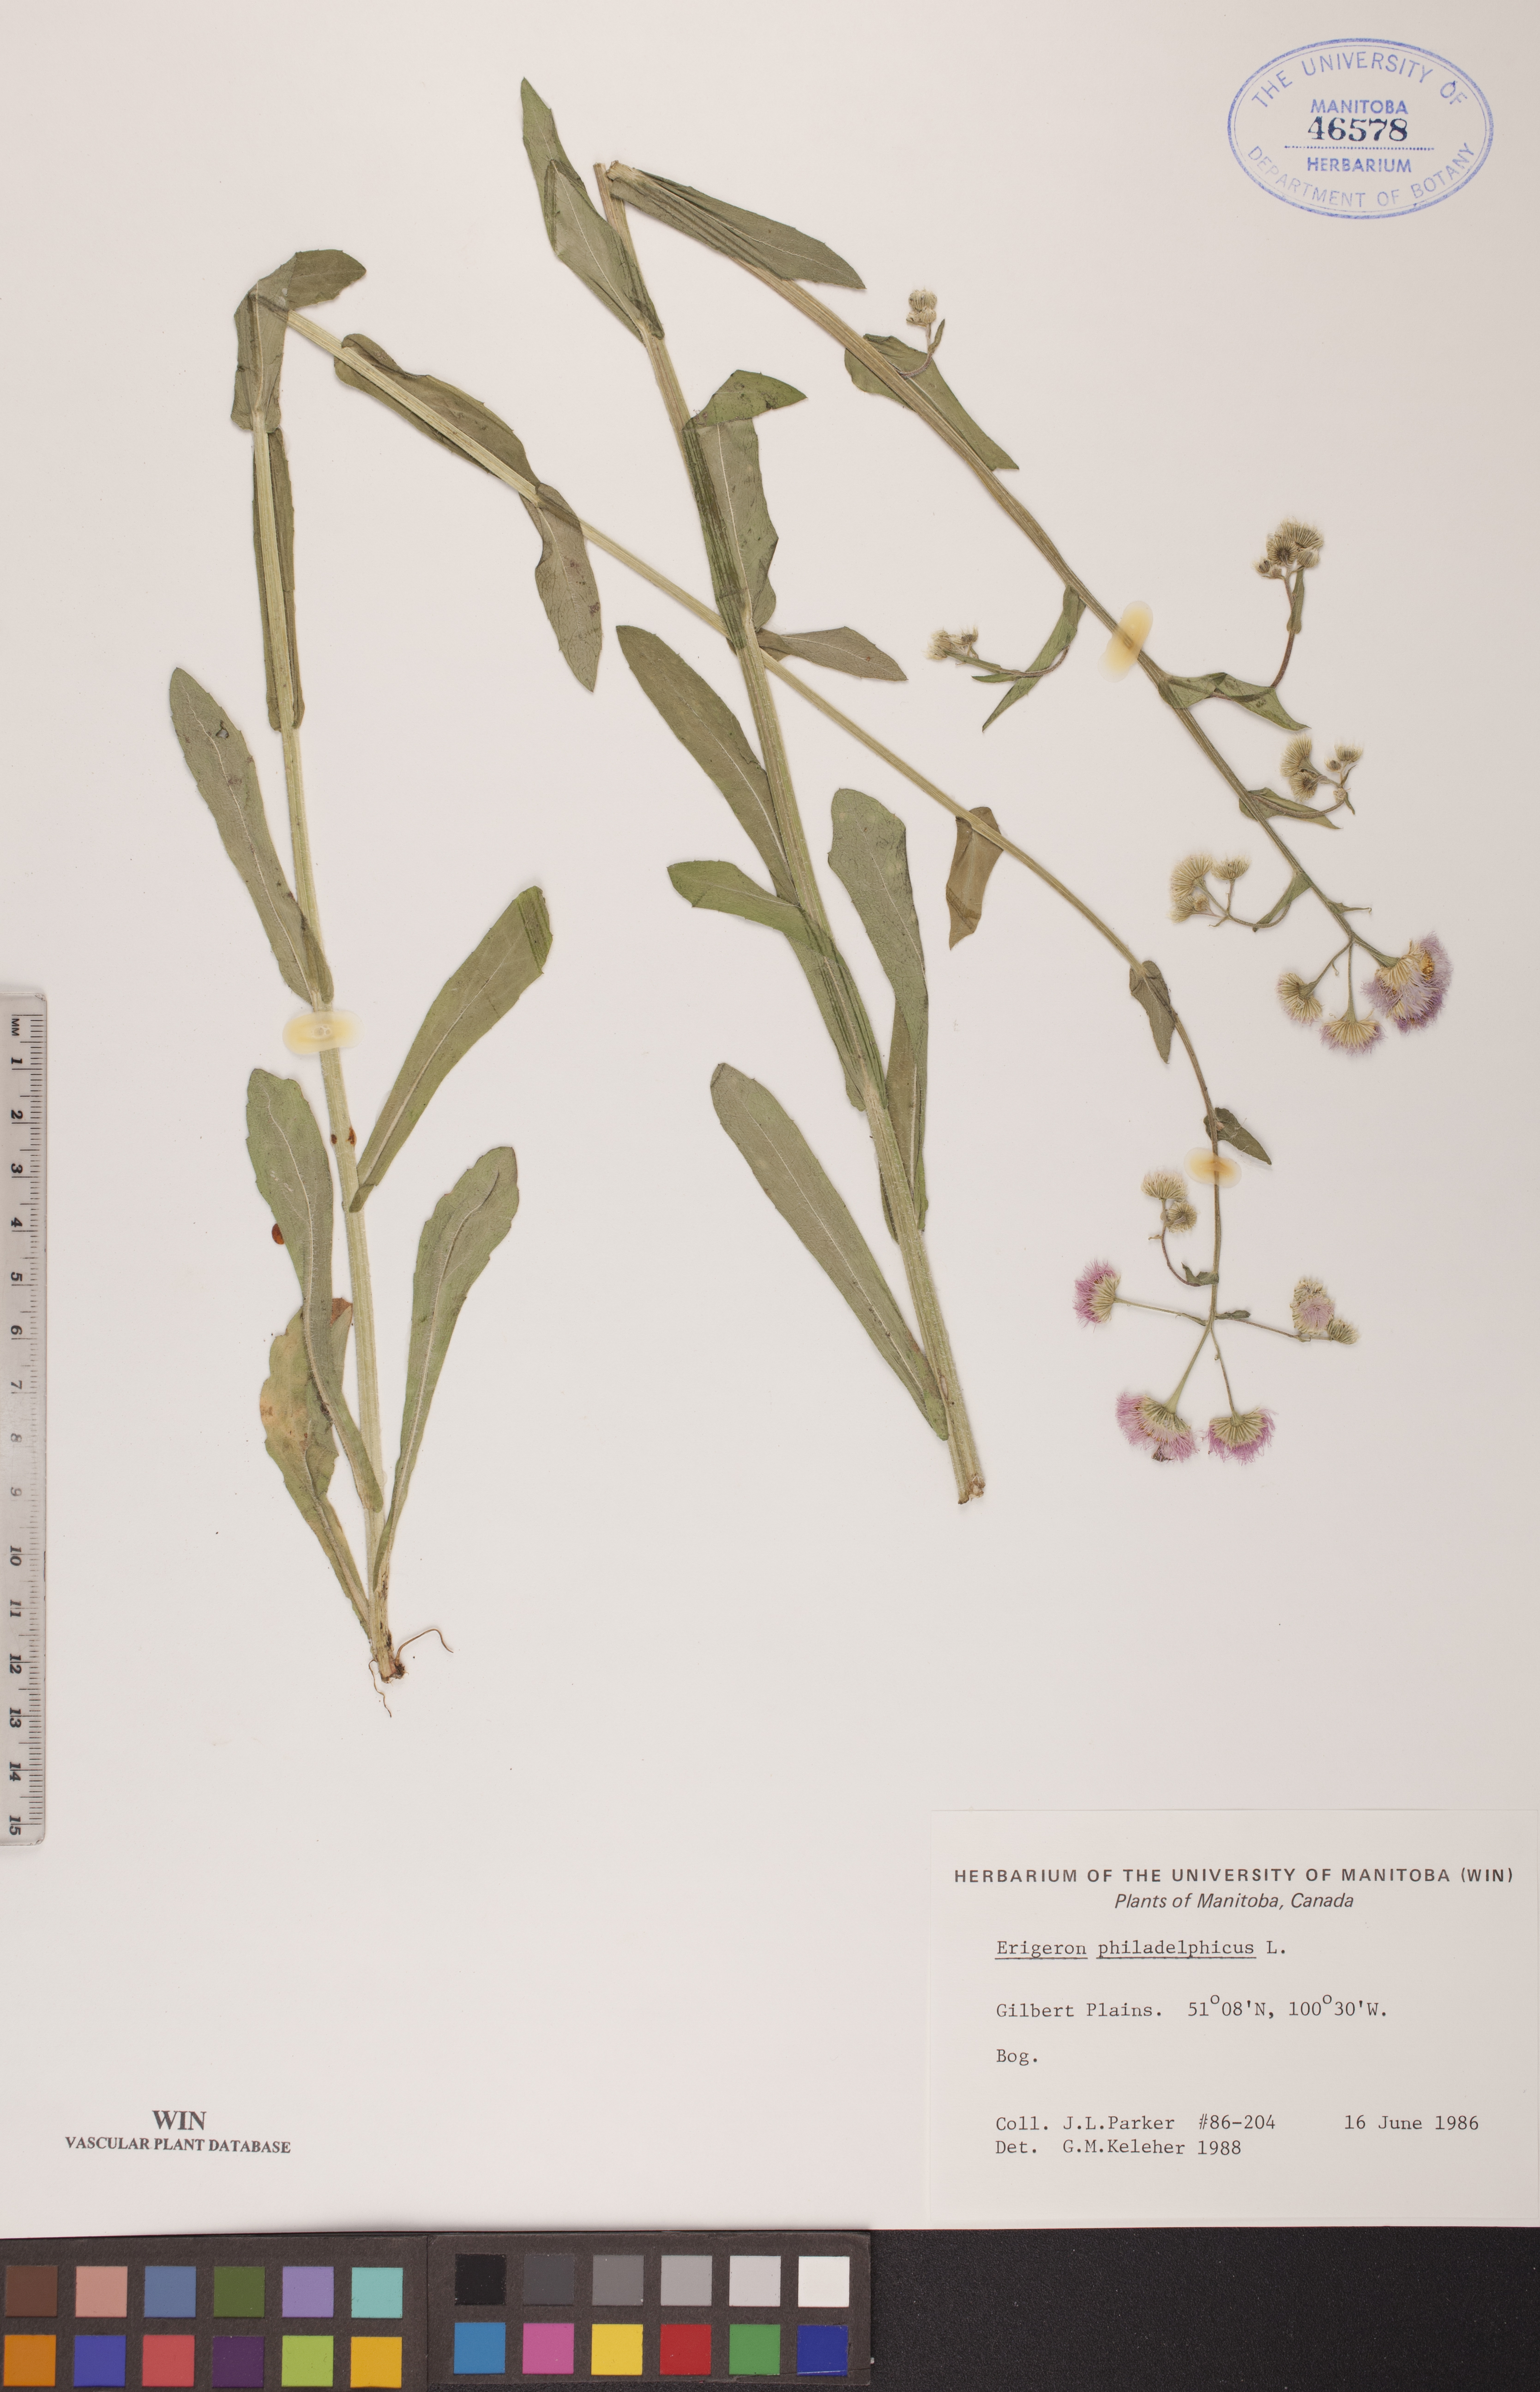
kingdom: Plantae
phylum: Tracheophyta
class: Magnoliopsida
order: Asterales
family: Asteraceae
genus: Erigeron
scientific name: Erigeron philadelphicus
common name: Robin's-plantain
